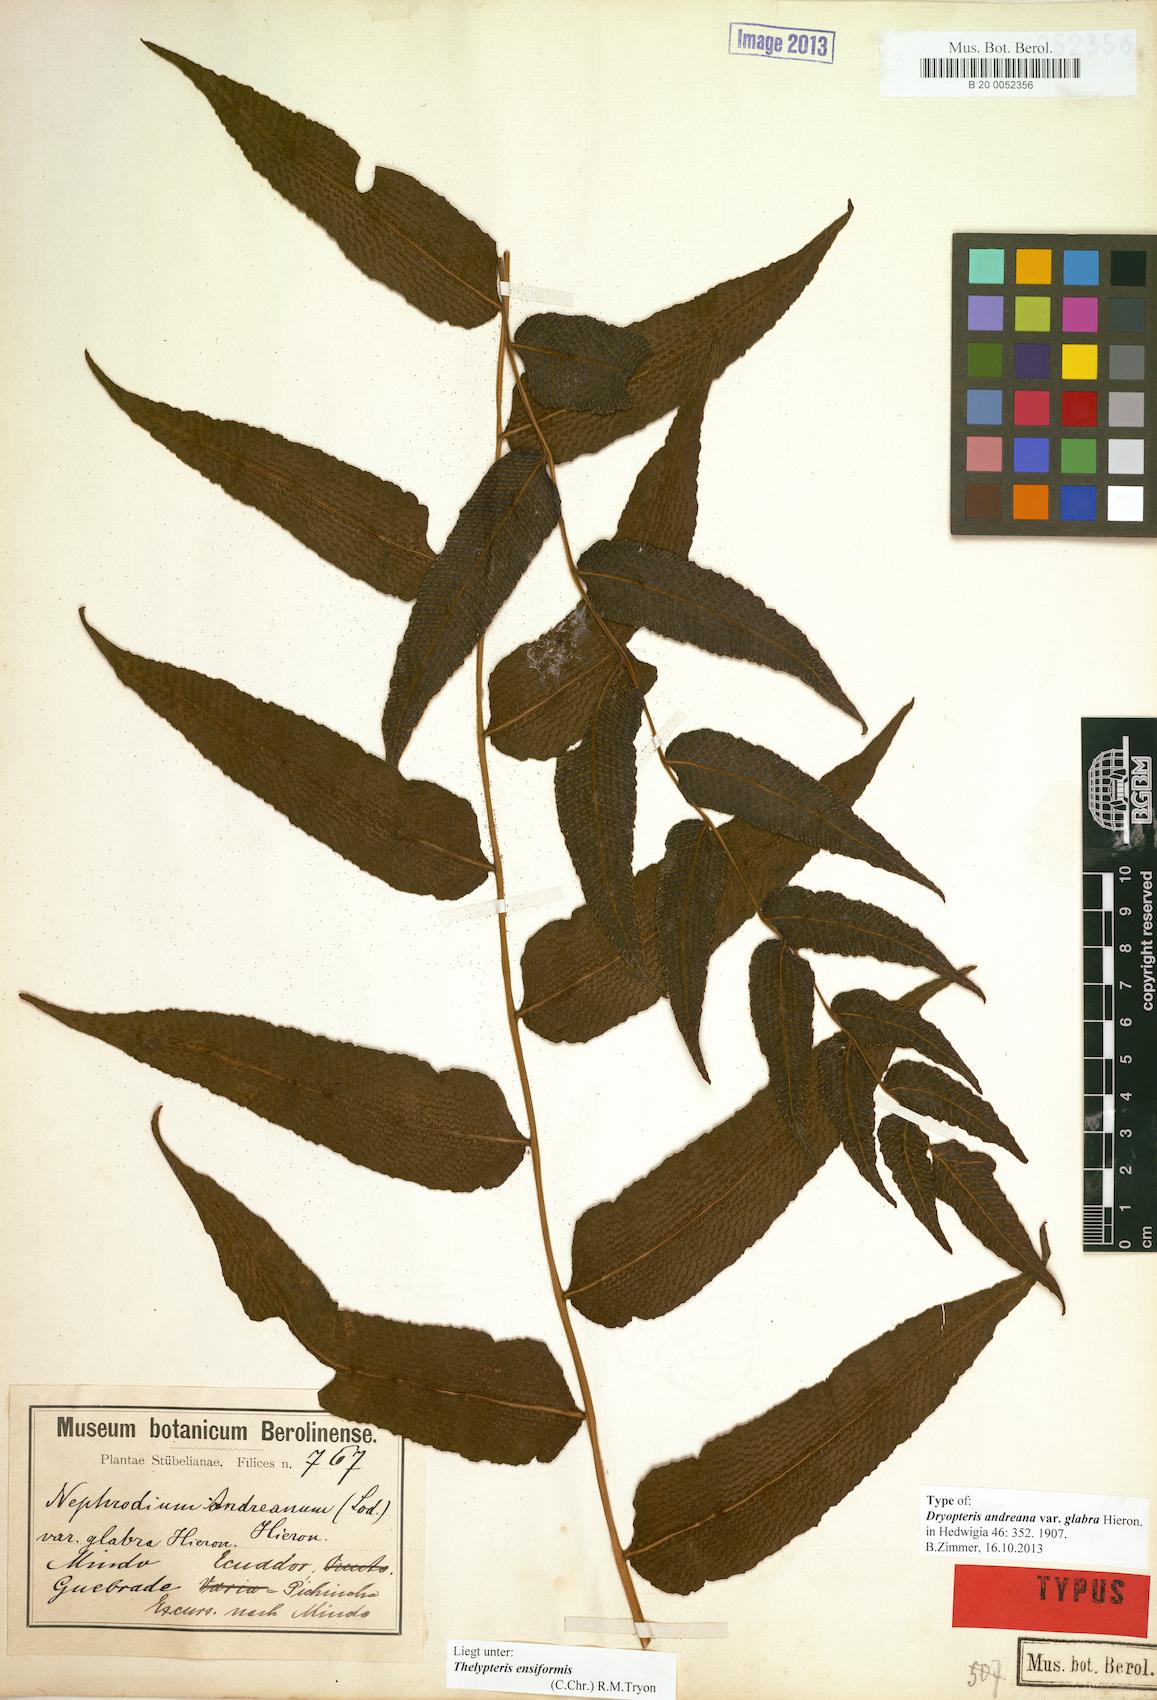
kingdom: Plantae
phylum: Tracheophyta
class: Polypodiopsida
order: Polypodiales
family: Thelypteridaceae
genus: Meniscium
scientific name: Meniscium andreanum
